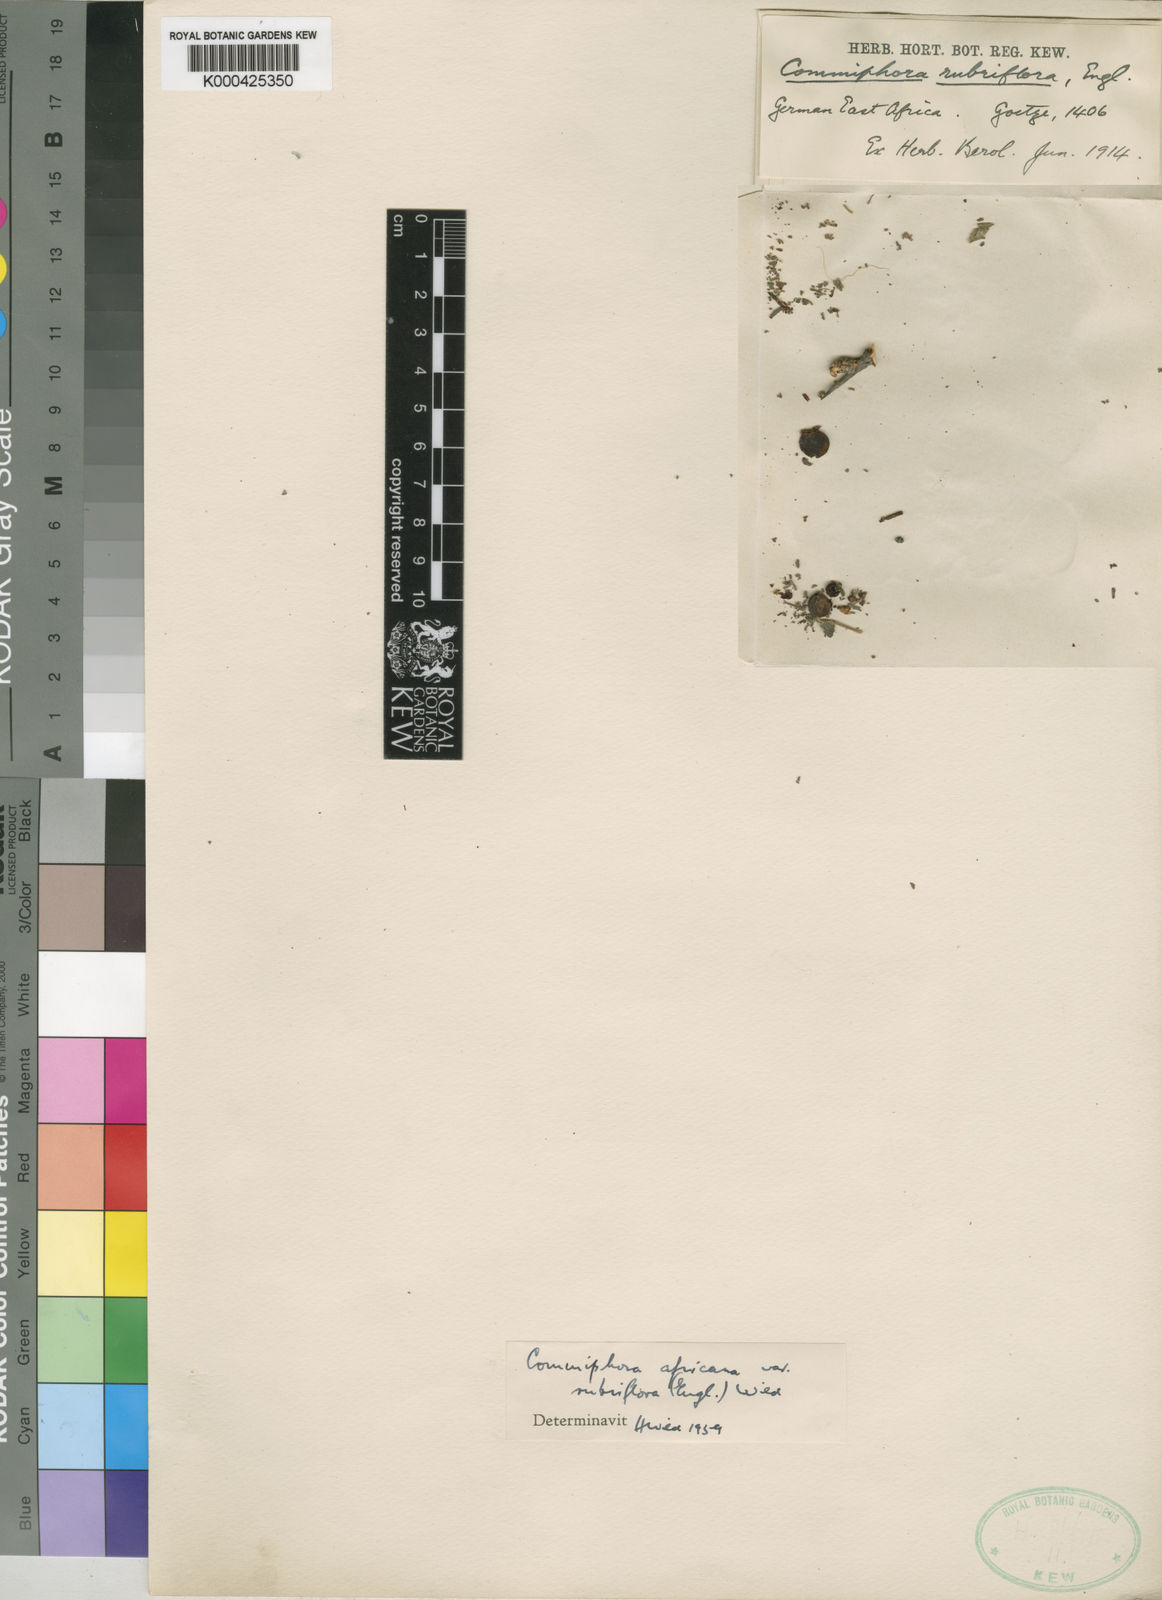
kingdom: Plantae
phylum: Tracheophyta
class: Magnoliopsida
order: Sapindales
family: Burseraceae
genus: Commiphora
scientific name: Commiphora africana
